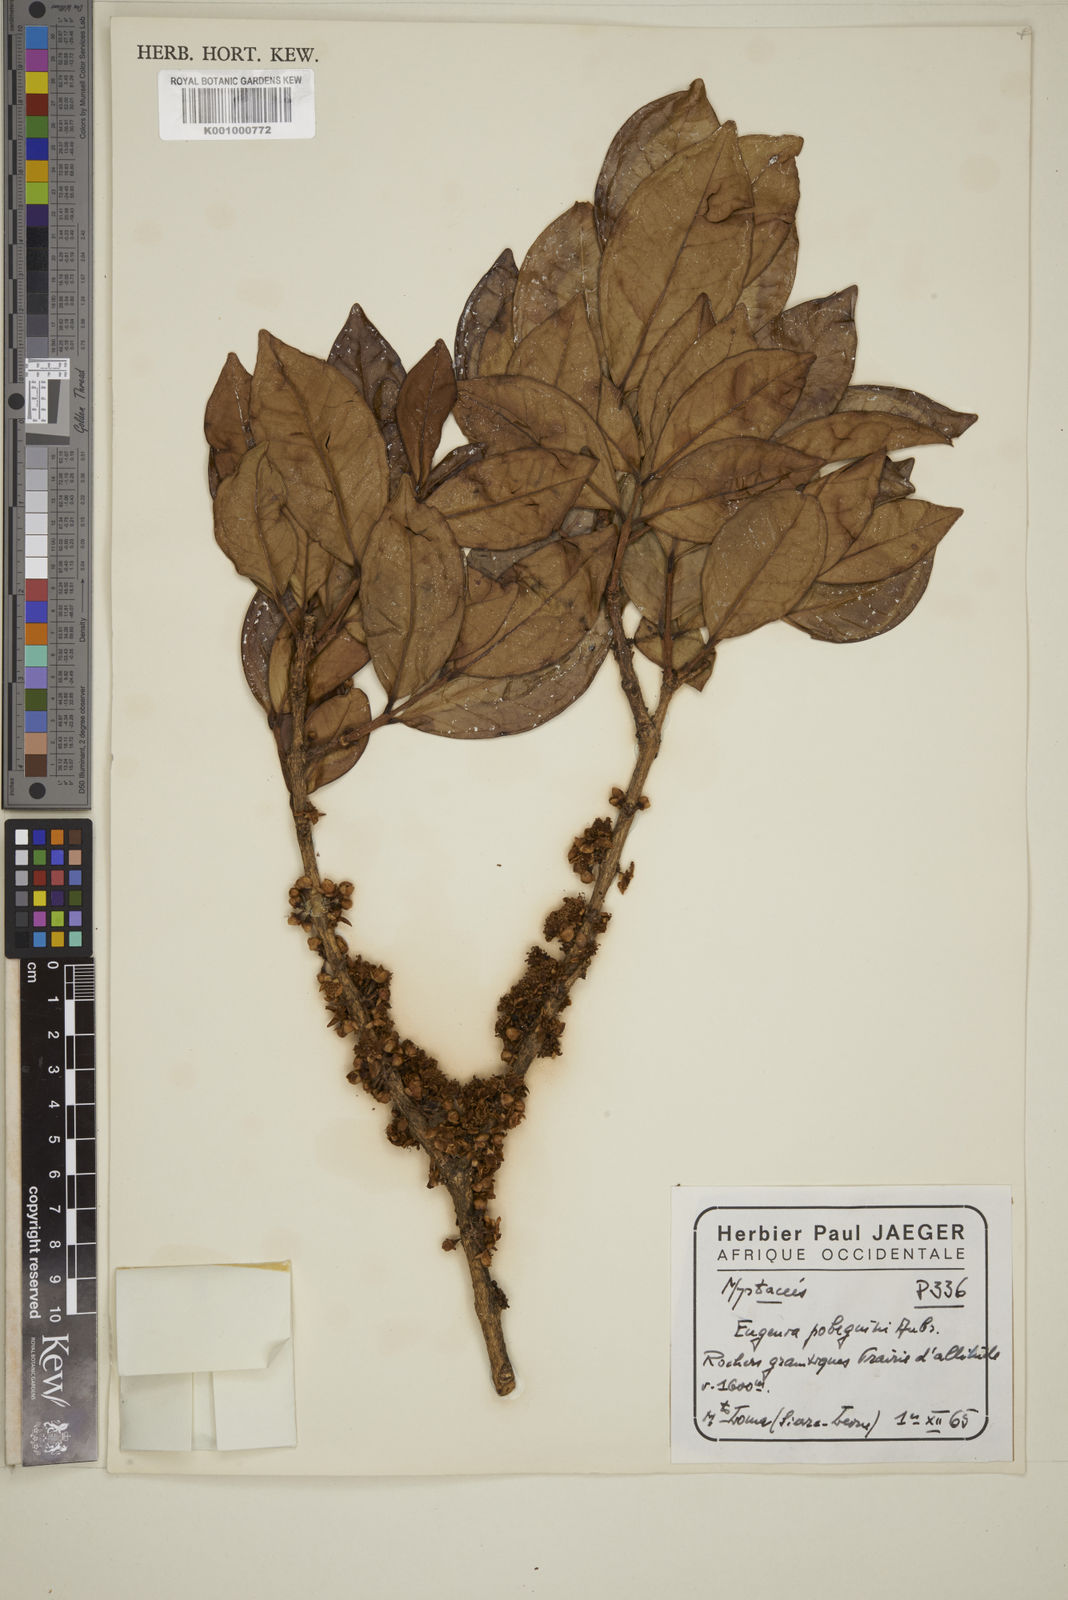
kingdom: Plantae
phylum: Tracheophyta
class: Magnoliopsida
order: Myrtales
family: Myrtaceae
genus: Eugenia
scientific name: Eugenia
